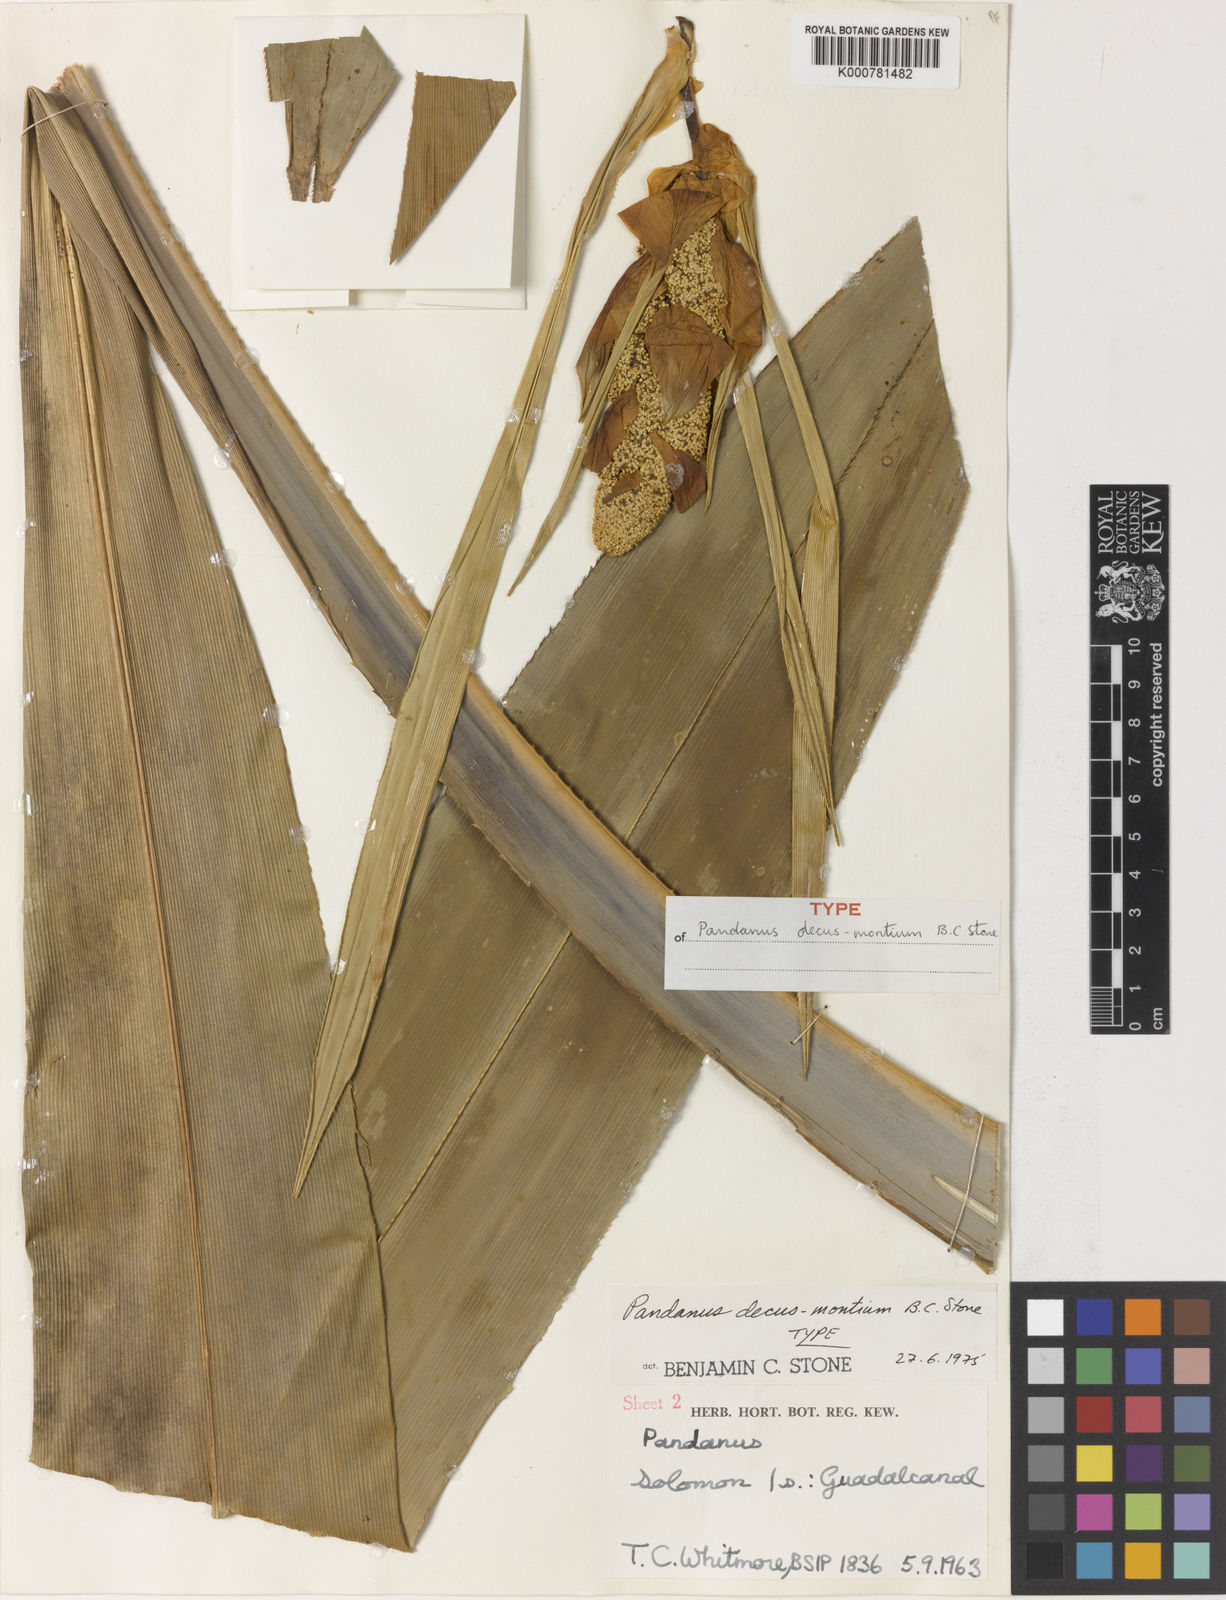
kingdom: Plantae
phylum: Tracheophyta
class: Liliopsida
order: Pandanales
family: Pandanaceae
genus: Pandanus
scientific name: Pandanus decus-montium
